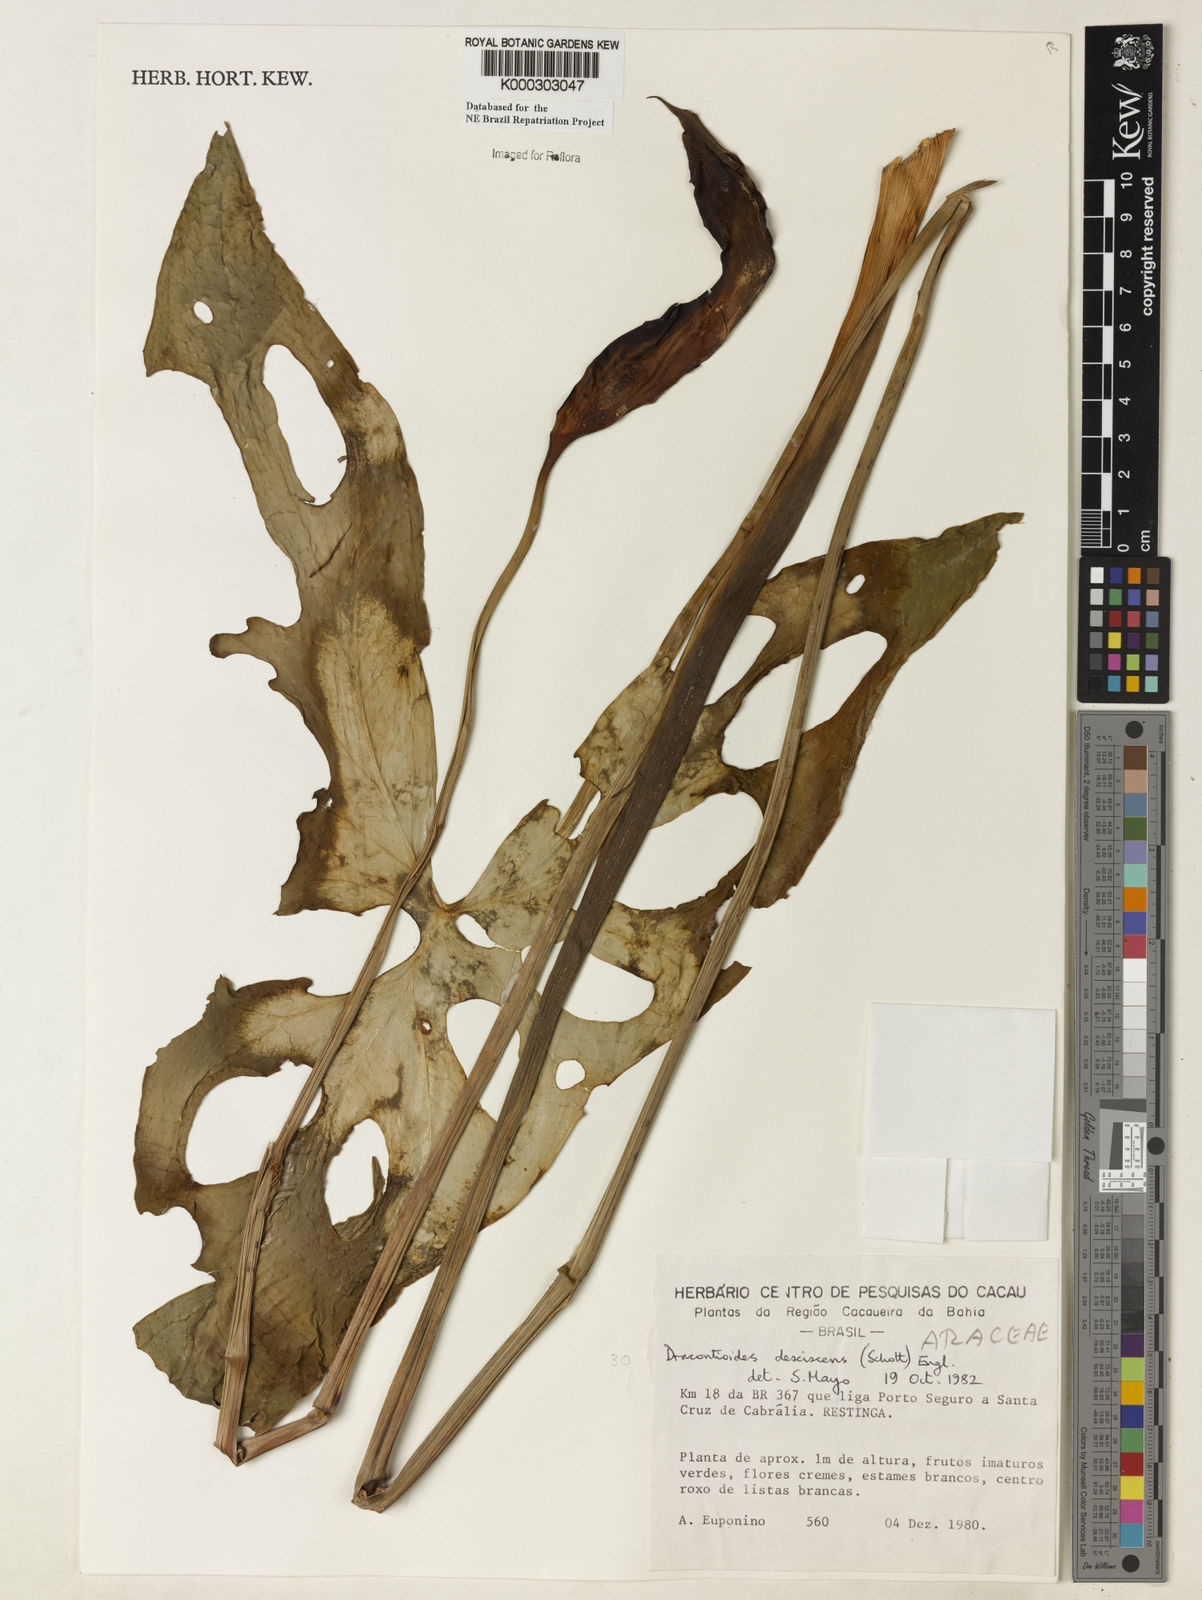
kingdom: Plantae
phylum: Tracheophyta
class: Liliopsida
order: Alismatales
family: Araceae
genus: Dracontioides
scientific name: Dracontioides desciscens
